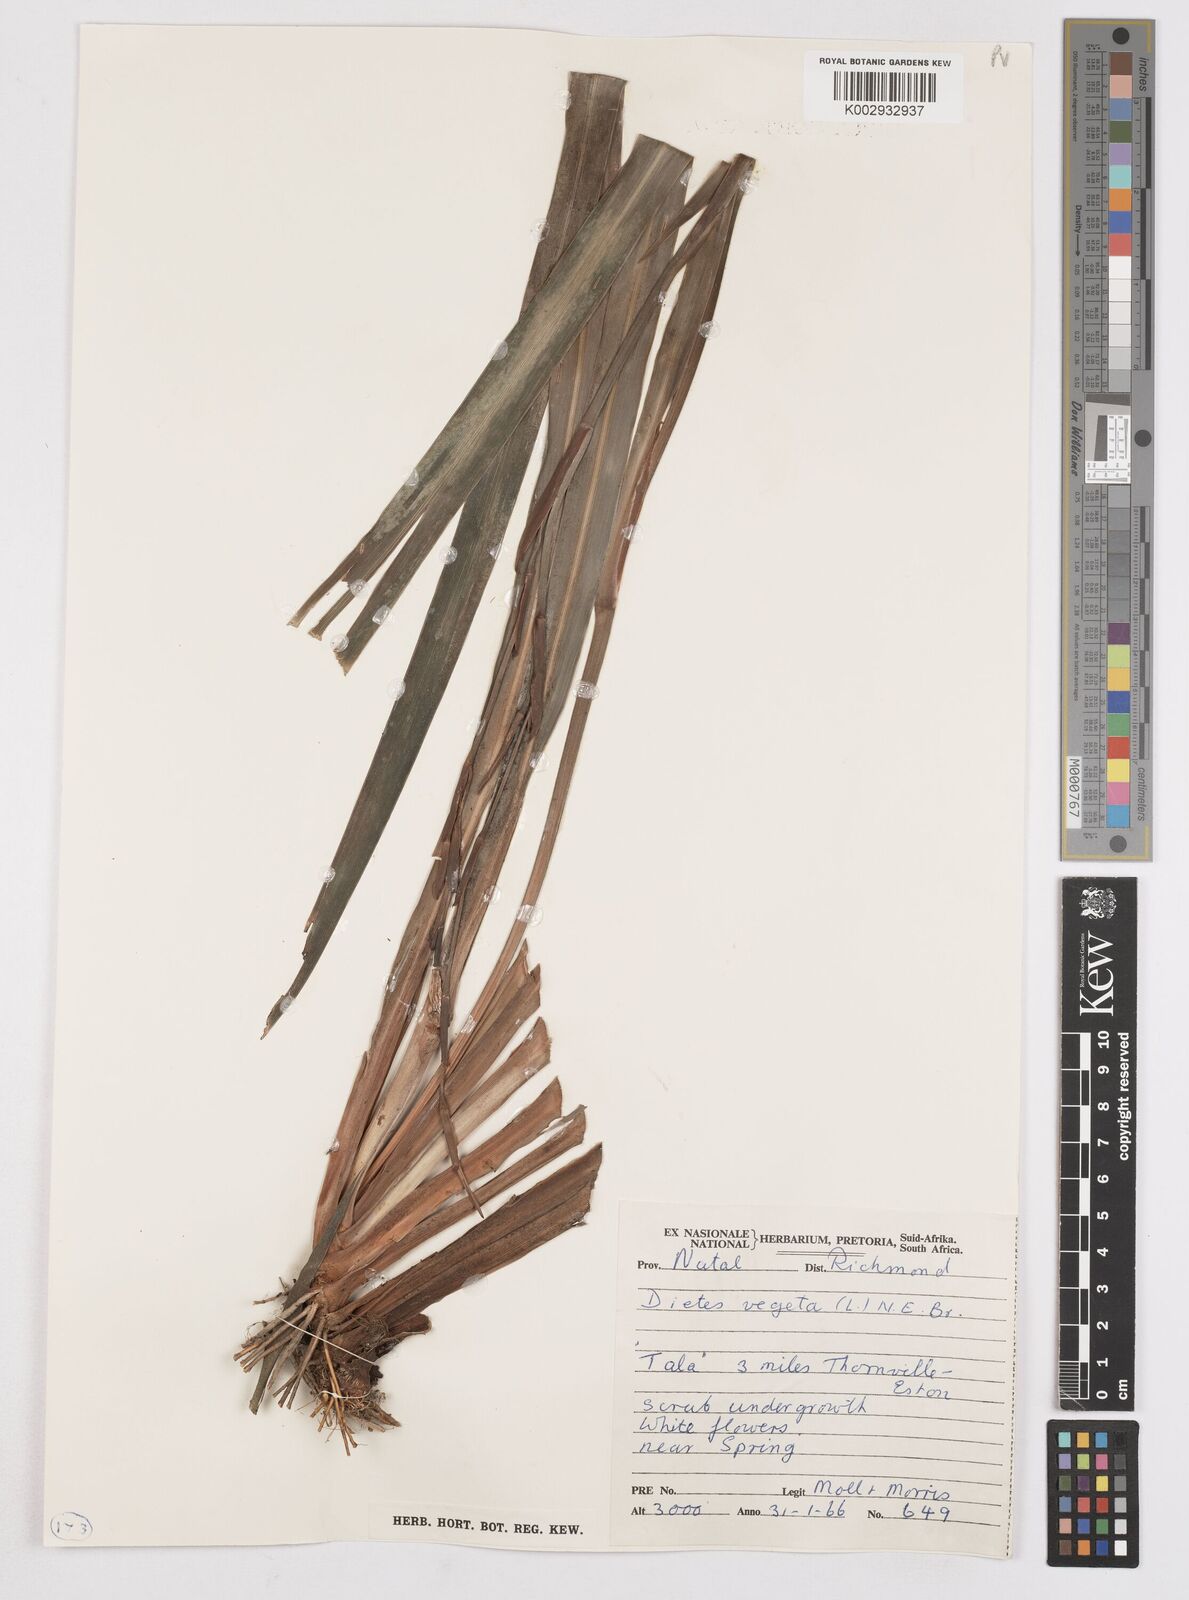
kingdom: Plantae
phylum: Tracheophyta
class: Liliopsida
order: Asparagales
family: Iridaceae
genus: Dietes
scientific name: Dietes iridioides
